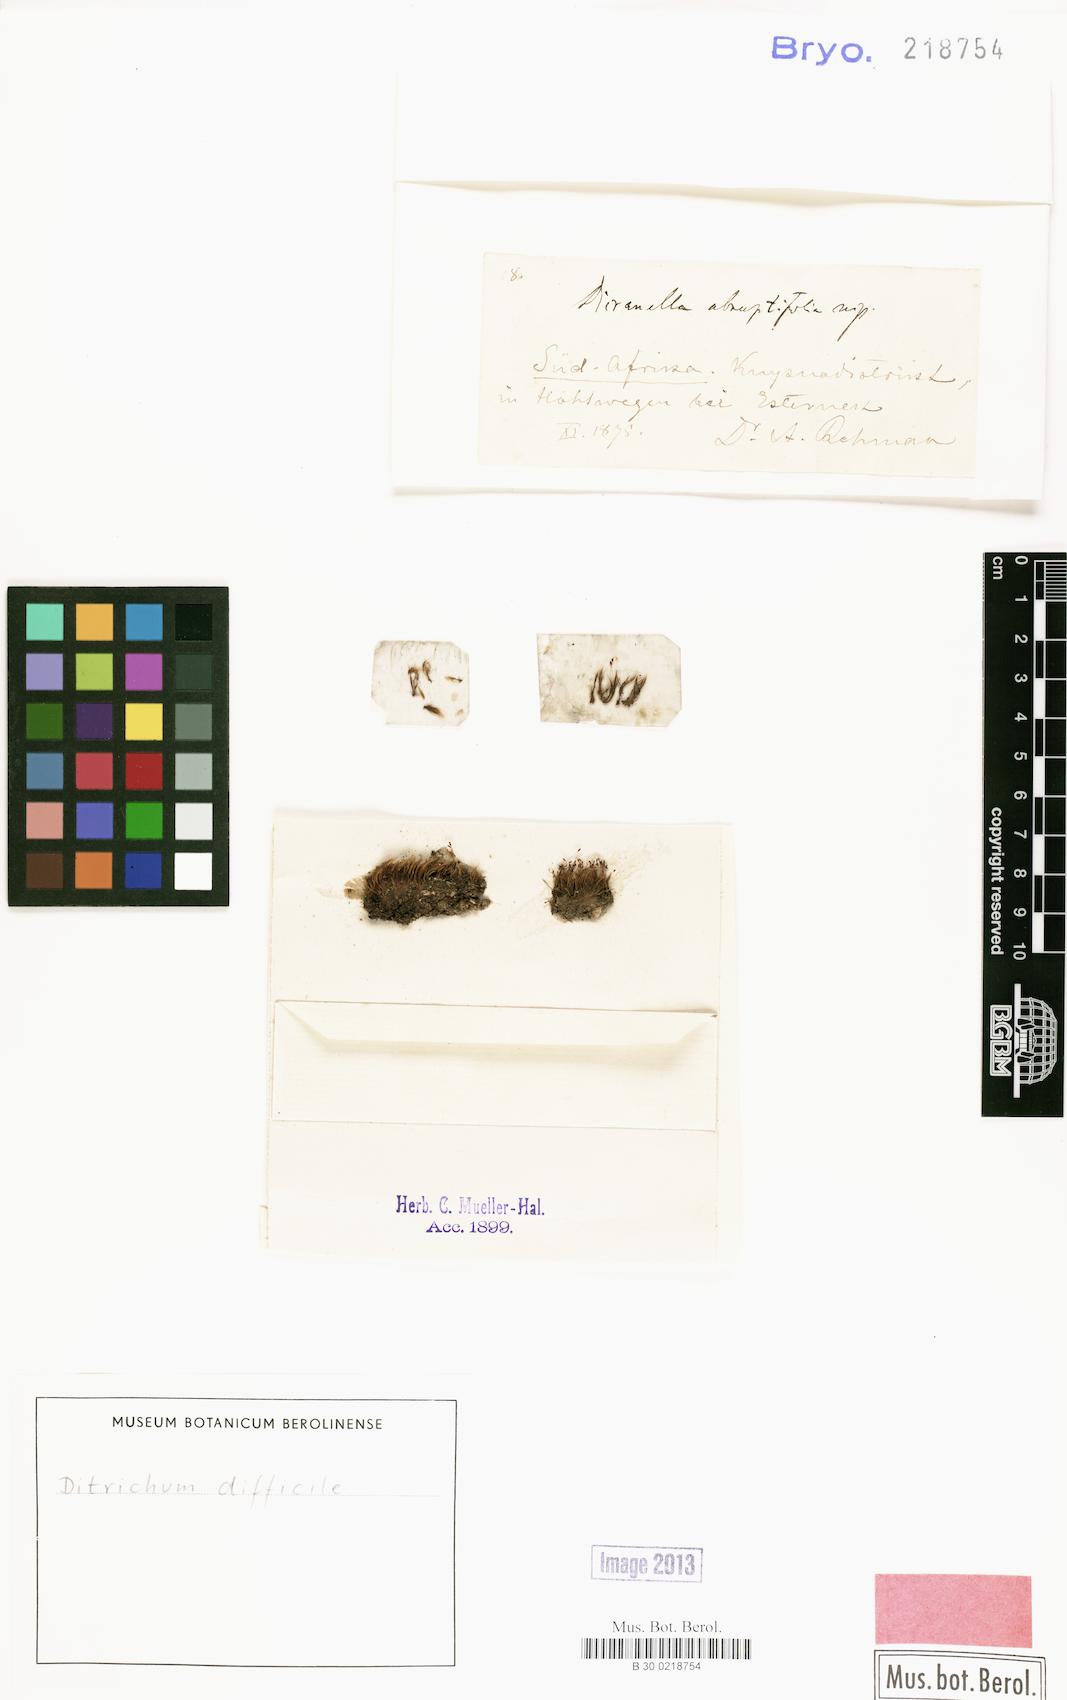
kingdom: Plantae
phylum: Bryophyta
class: Bryopsida
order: Dicranales
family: Ditrichaceae
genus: Ditrichum
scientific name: Ditrichum difficile
